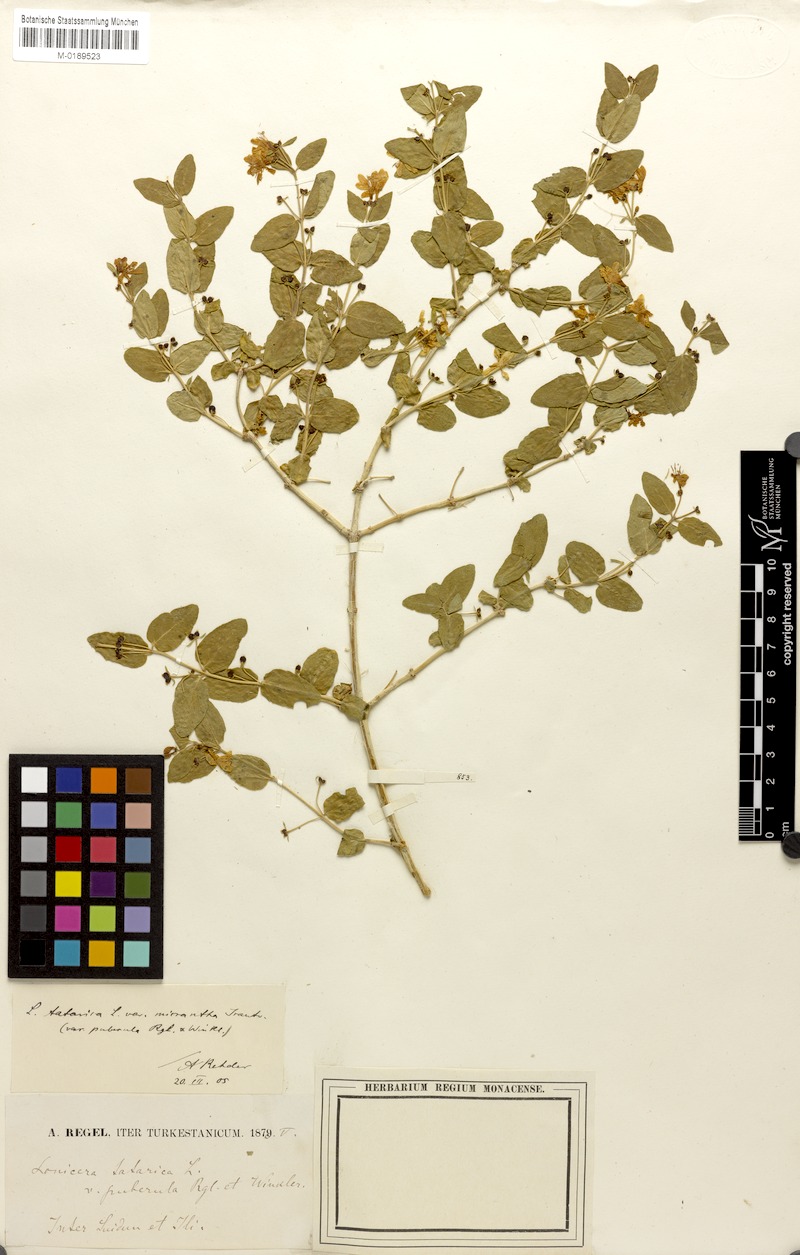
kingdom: Plantae
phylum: Tracheophyta
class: Magnoliopsida
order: Dipsacales
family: Caprifoliaceae
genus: Lonicera
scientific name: Lonicera tatarica
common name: Tatarian honeysuckle
